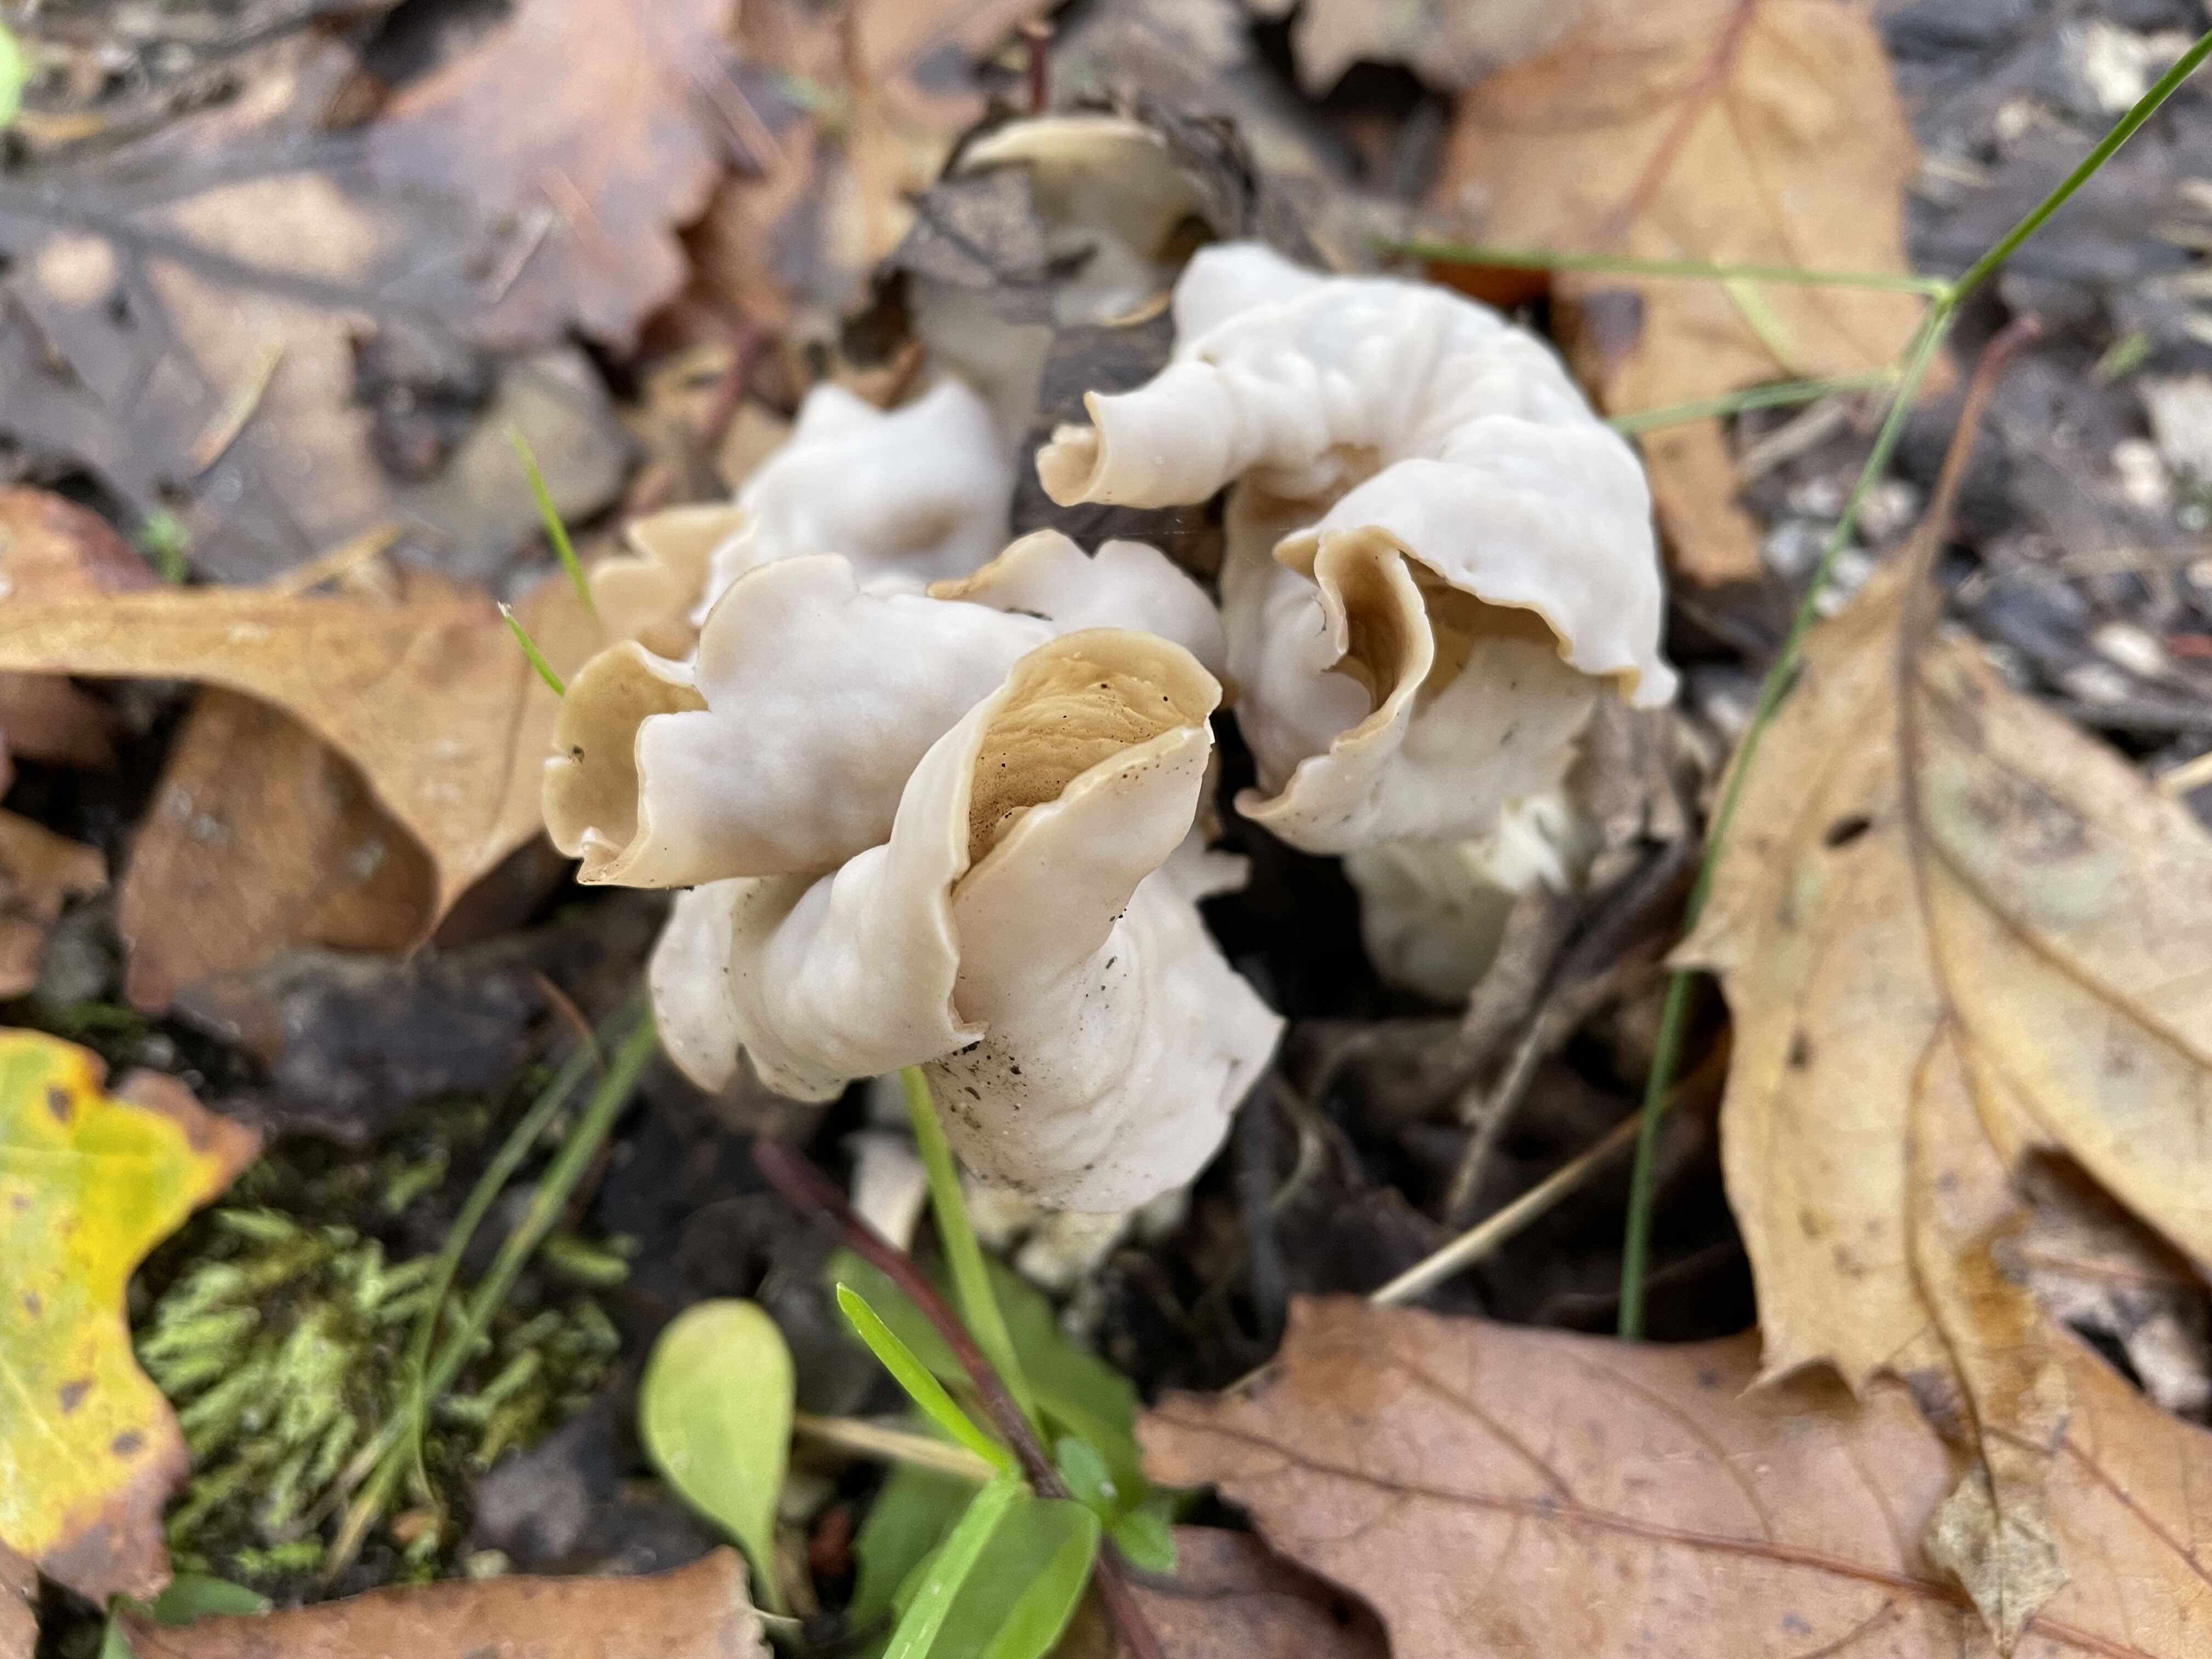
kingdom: Fungi
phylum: Ascomycota
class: Pezizomycetes
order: Pezizales
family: Helvellaceae
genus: Helvella
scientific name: Helvella crispa
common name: kruset foldhat
